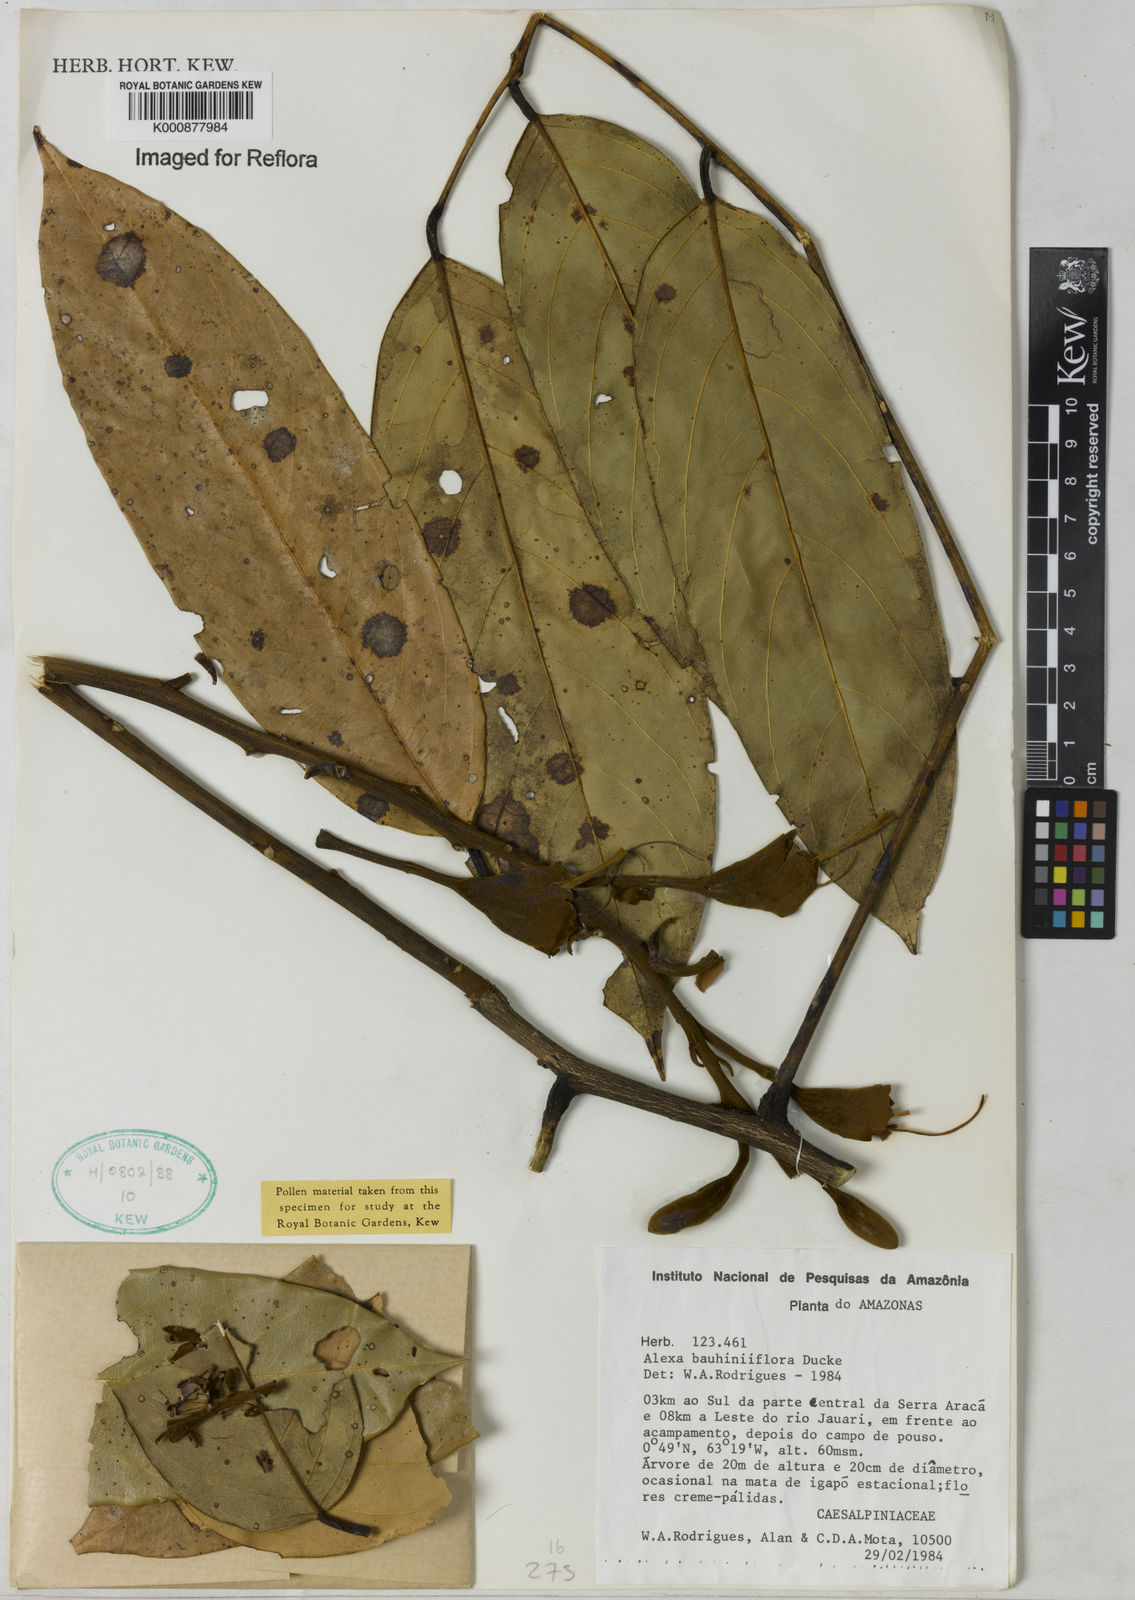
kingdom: Plantae
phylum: Tracheophyta
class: Magnoliopsida
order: Fabales
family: Fabaceae
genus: Alexa
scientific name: Alexa bauhiniiflora
